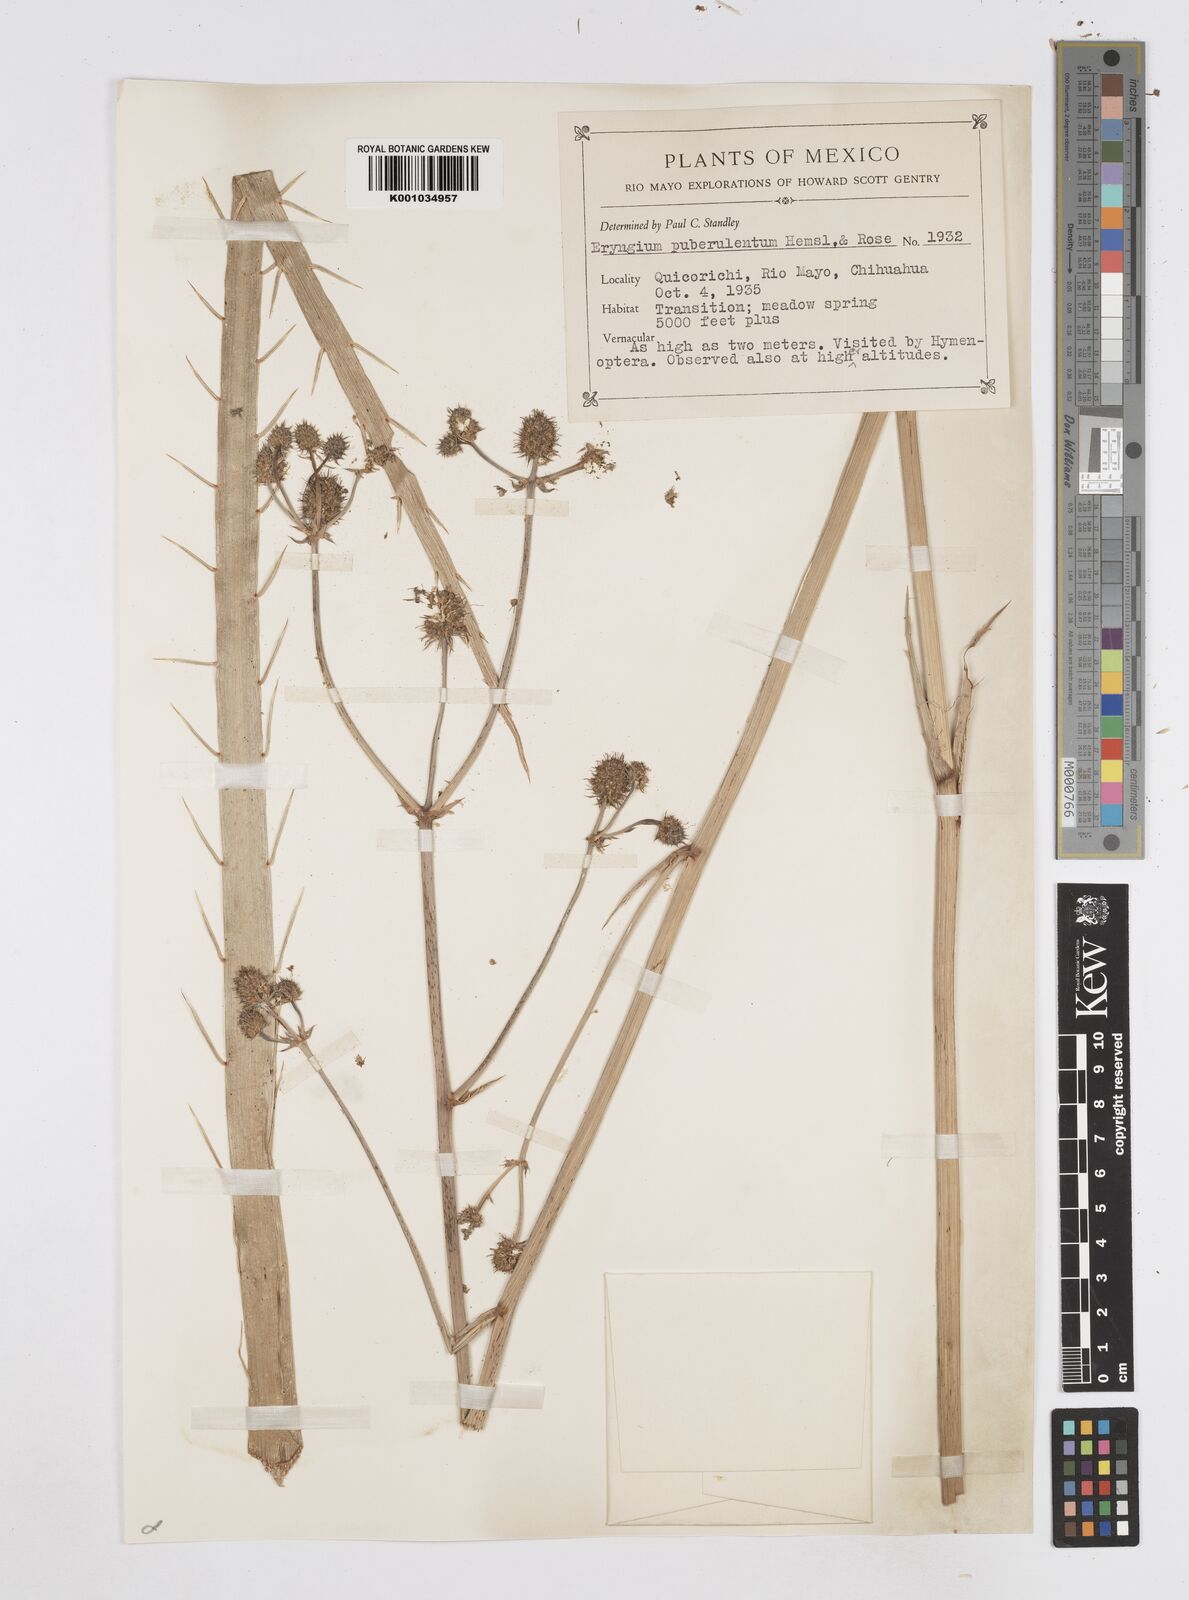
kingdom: Plantae
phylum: Tracheophyta
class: Magnoliopsida
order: Apiales
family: Apiaceae
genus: Eryngium
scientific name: Eryngium gramineum
